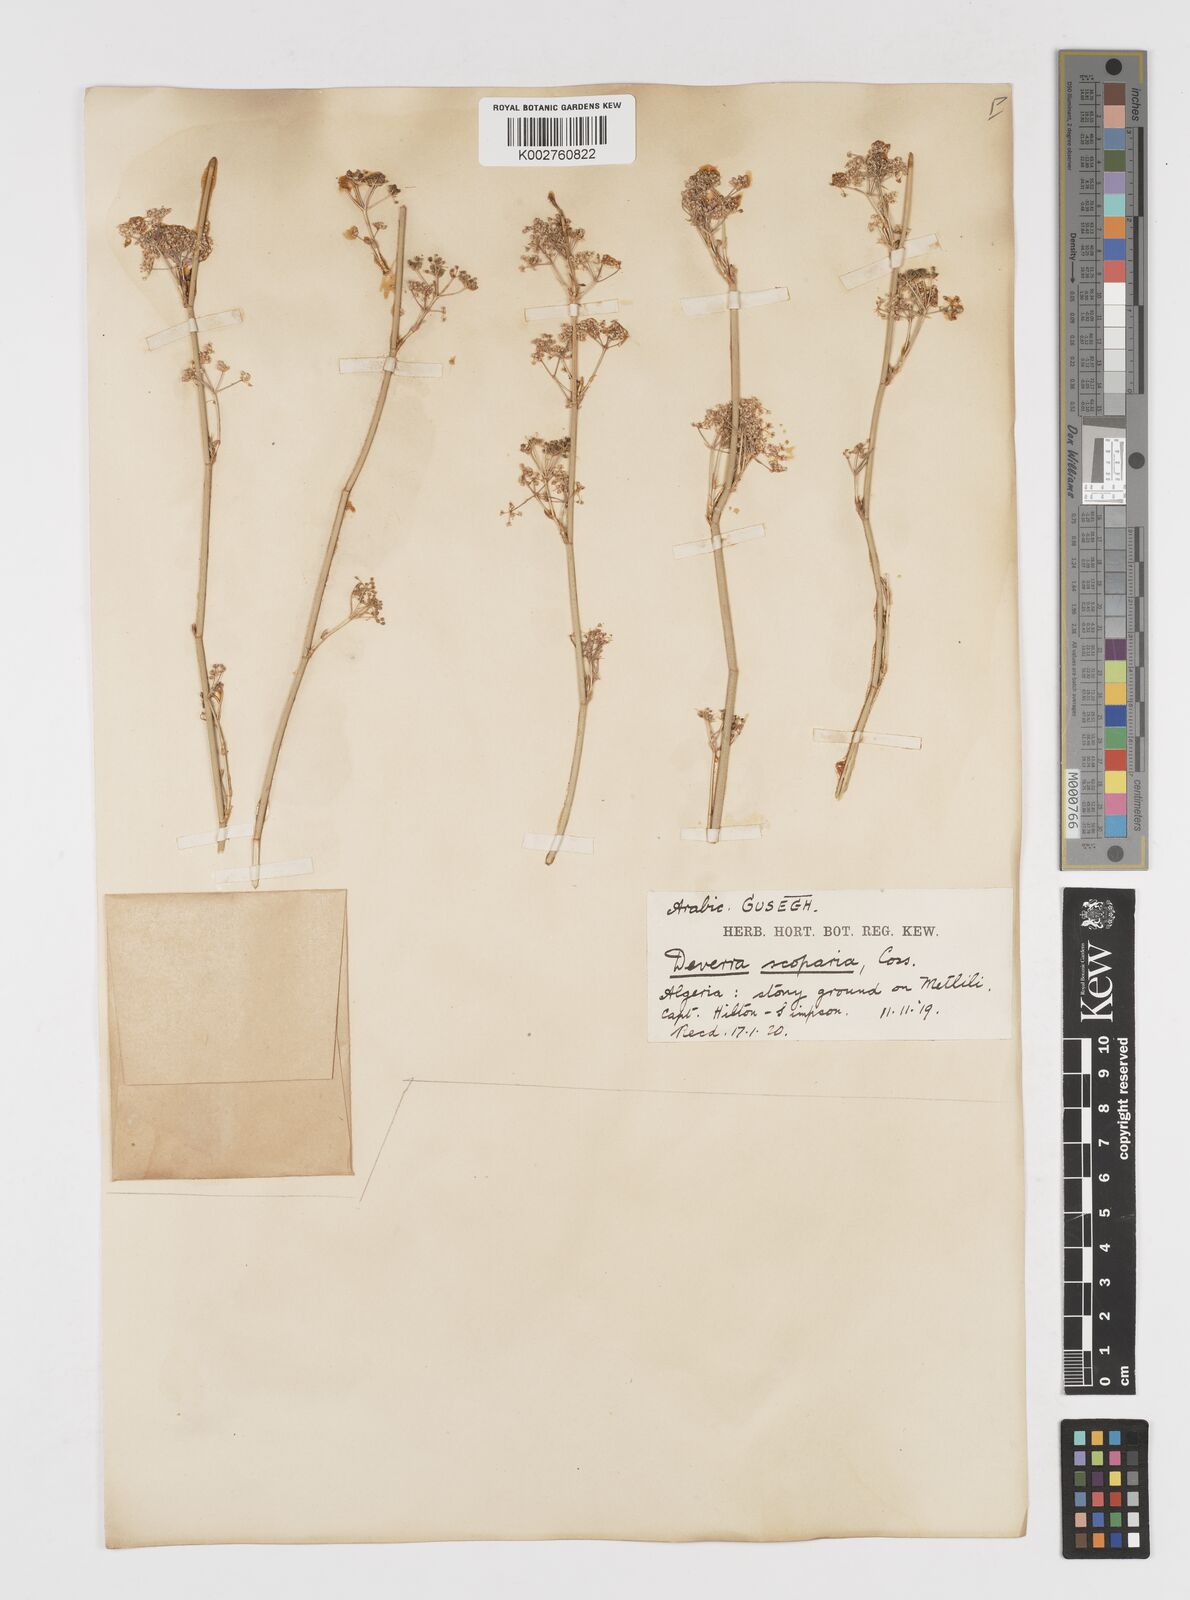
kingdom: Plantae
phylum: Tracheophyta
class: Magnoliopsida
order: Apiales
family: Apiaceae
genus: Deverra
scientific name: Deverra scoparia
